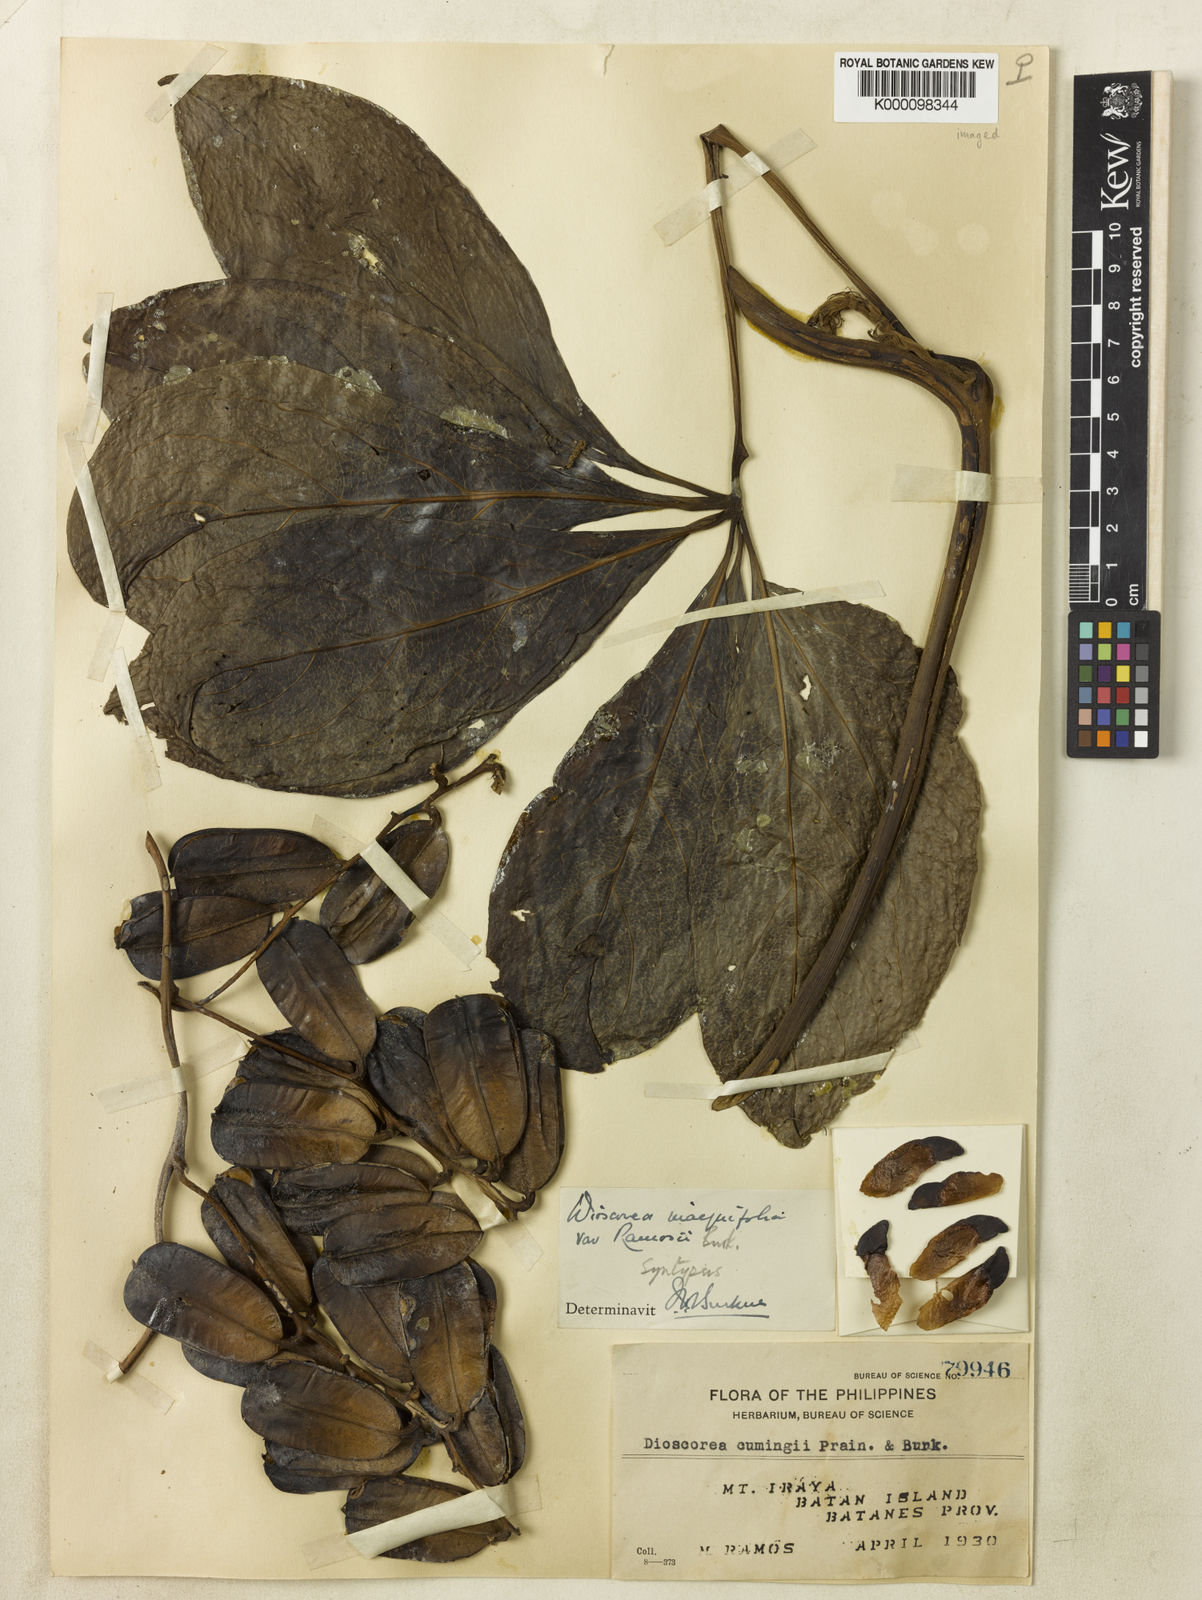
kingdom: Plantae
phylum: Tracheophyta
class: Liliopsida
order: Dioscoreales
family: Dioscoreaceae
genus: Dioscorea
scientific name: Dioscorea cumingii
